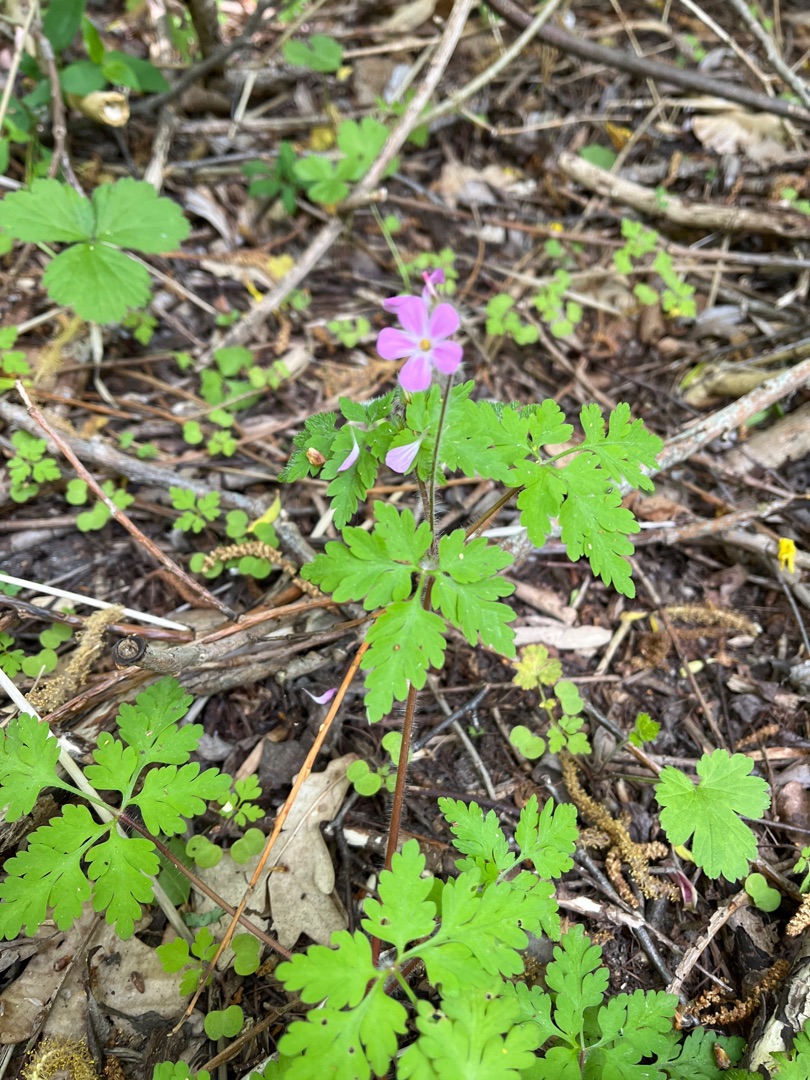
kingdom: Plantae
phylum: Tracheophyta
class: Magnoliopsida
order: Geraniales
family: Geraniaceae
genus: Geranium
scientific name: Geranium robertianum
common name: Stinkende storkenæb
